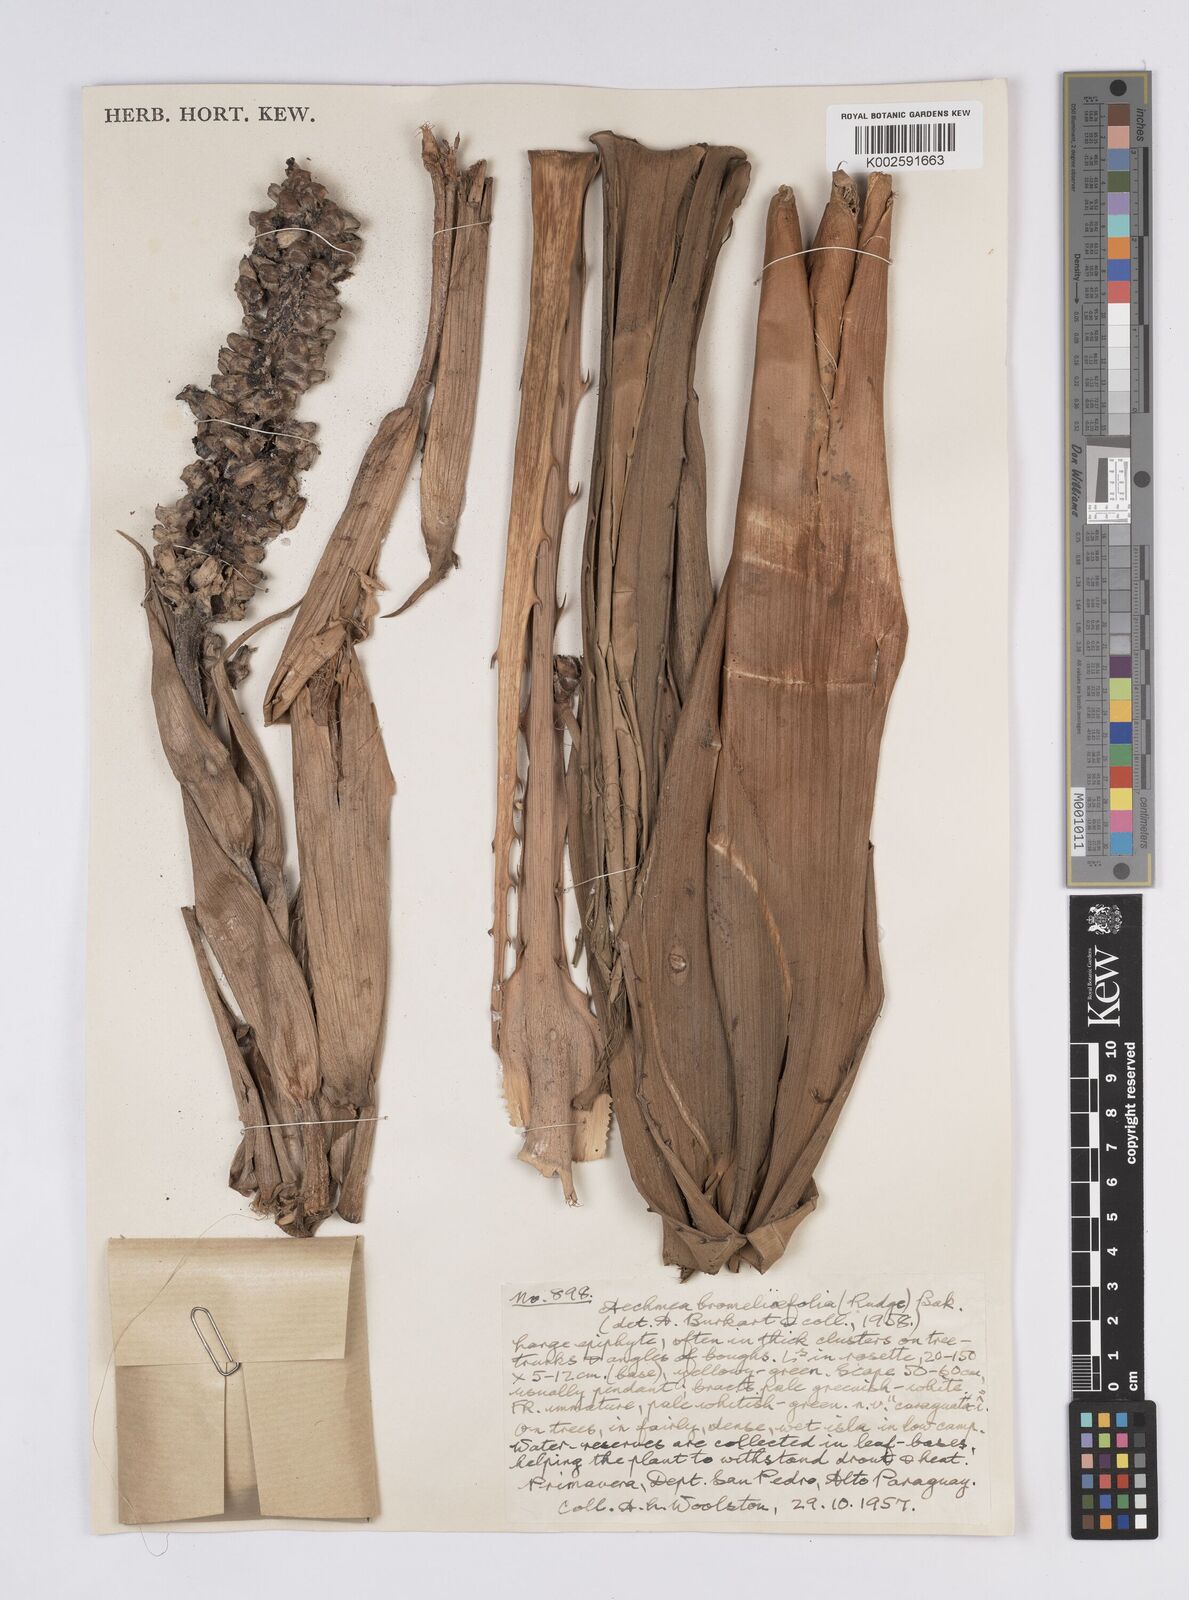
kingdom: Plantae
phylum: Tracheophyta
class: Liliopsida
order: Poales
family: Bromeliaceae
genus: Aechmea
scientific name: Aechmea bromeliifolia
